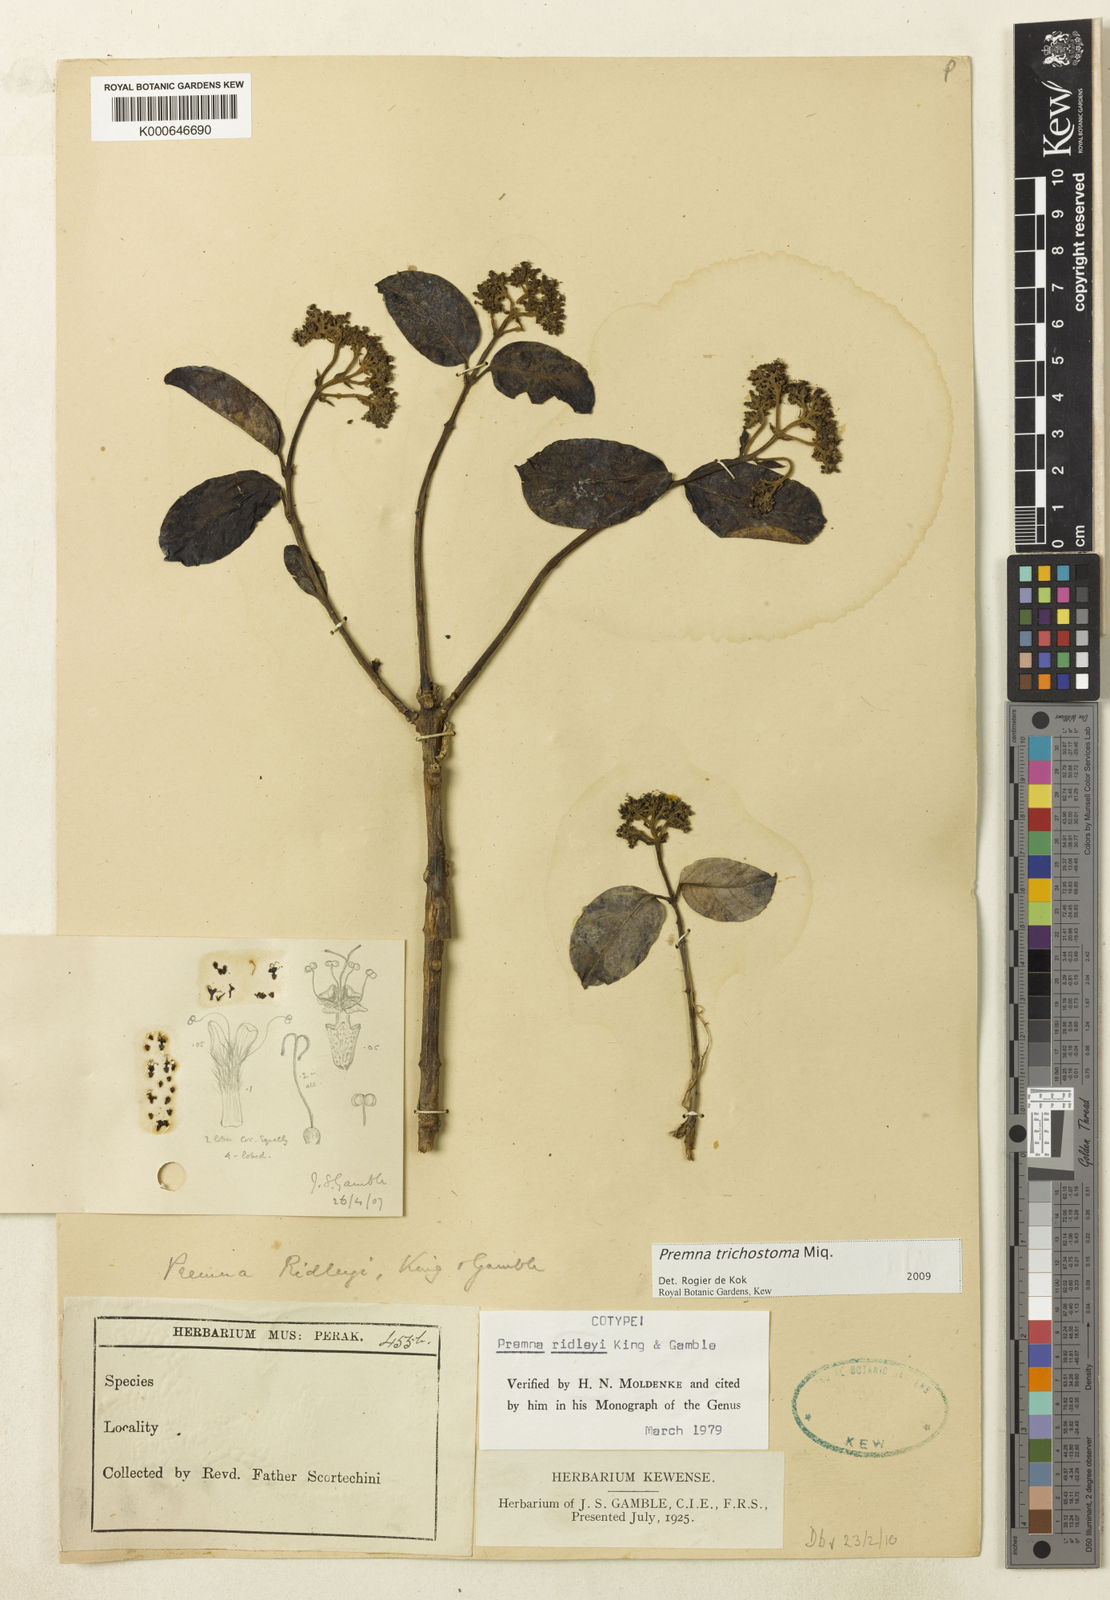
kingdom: Plantae
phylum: Tracheophyta
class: Magnoliopsida
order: Lamiales
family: Lamiaceae
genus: Premna
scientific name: Premna trichostoma
